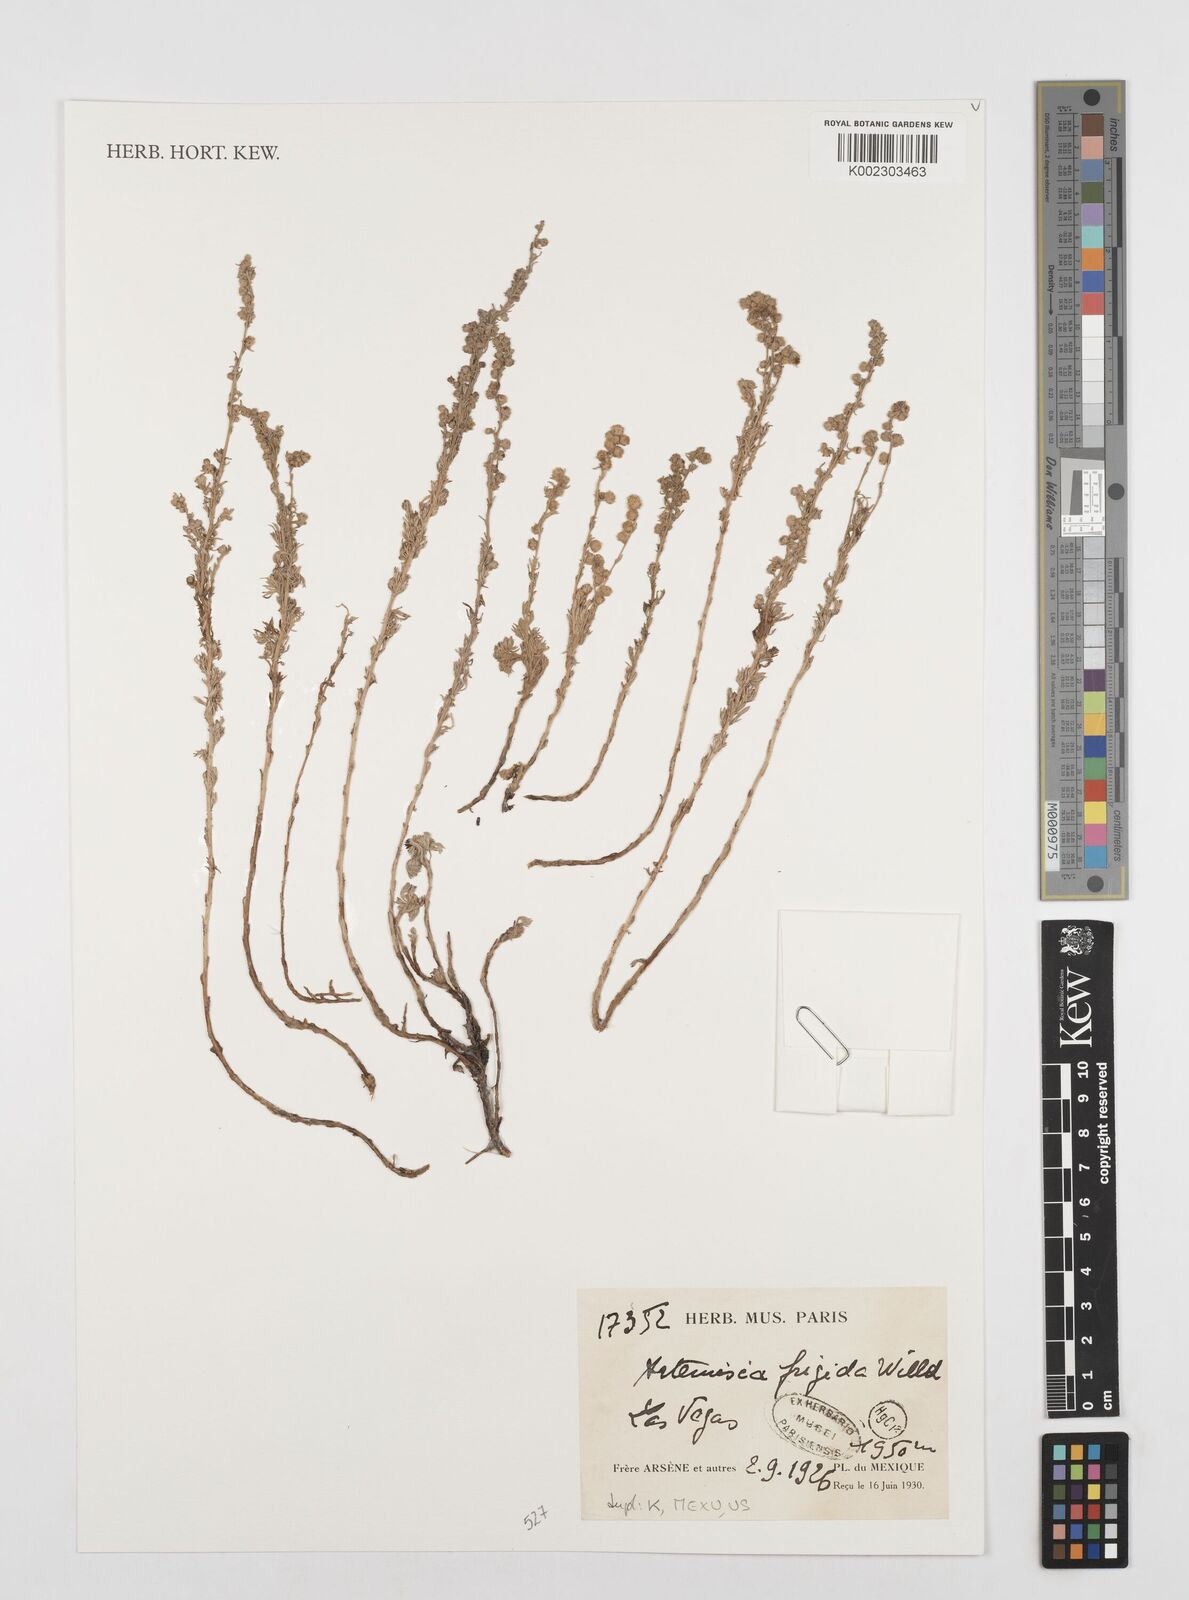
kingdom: Plantae
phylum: Tracheophyta
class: Magnoliopsida
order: Asterales
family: Asteraceae
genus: Artemisia
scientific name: Artemisia frigida
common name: Prairie sagewort
